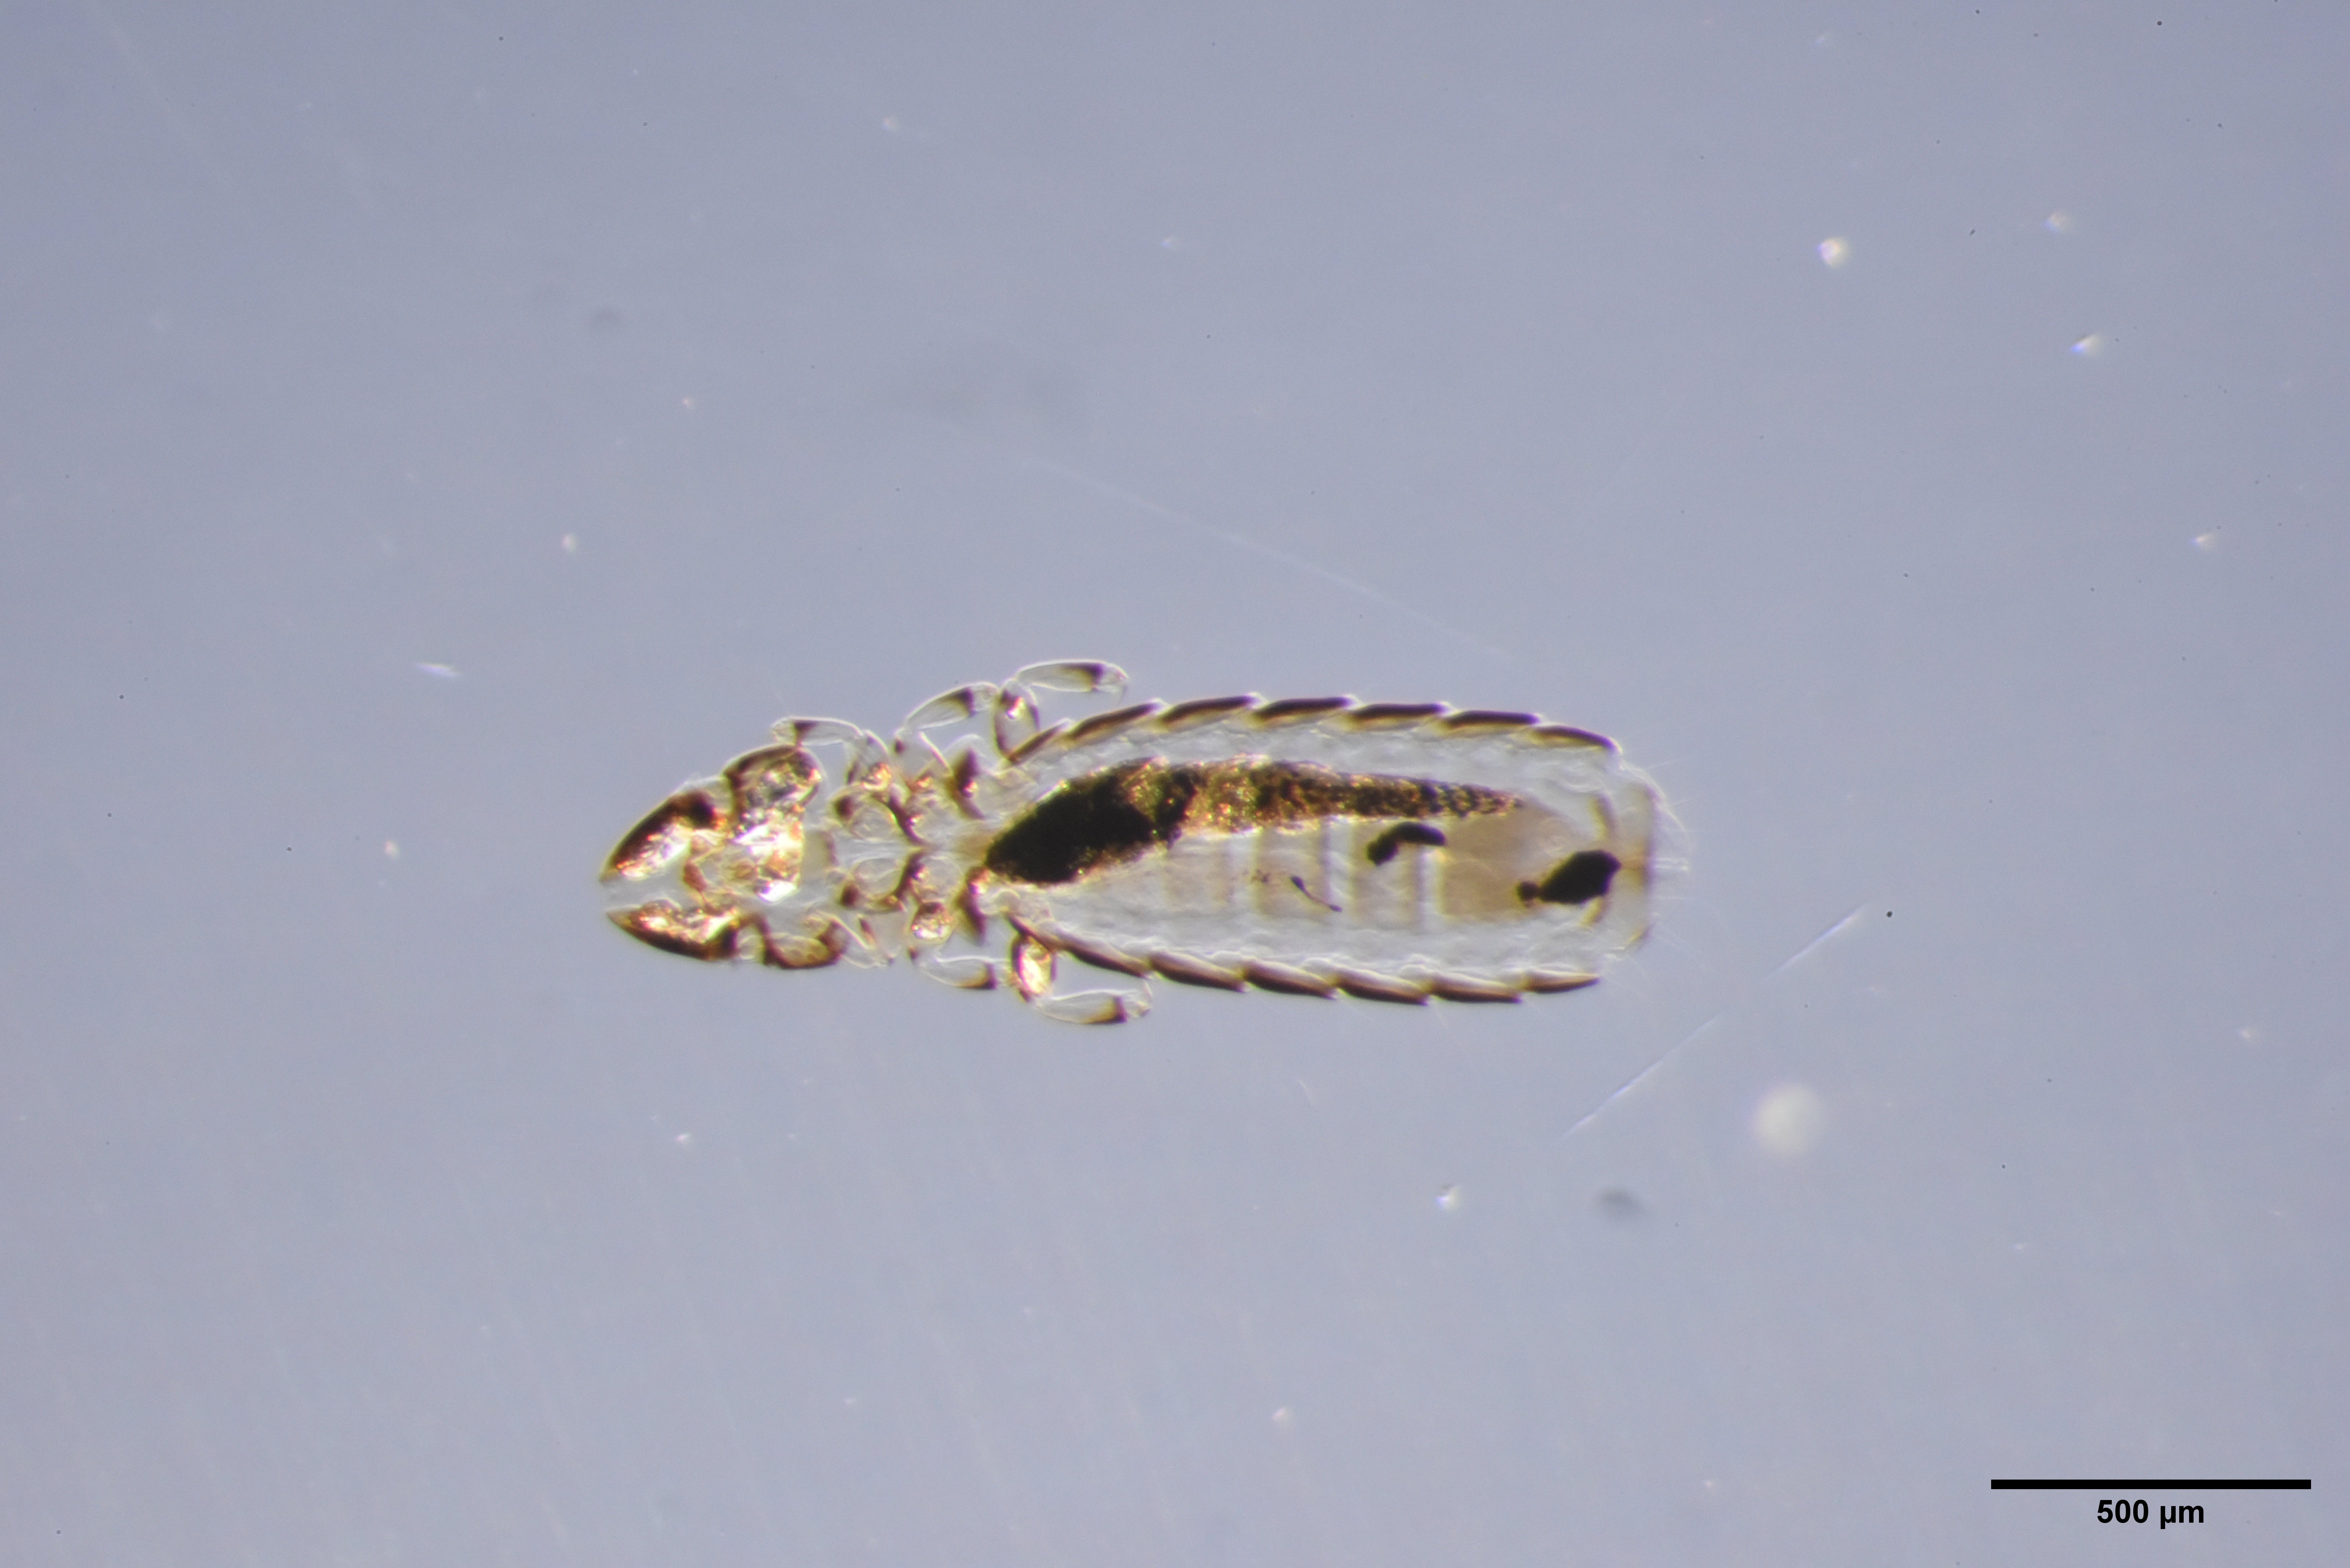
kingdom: Animalia
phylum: Arthropoda
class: Insecta
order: Psocodea
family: Philopteridae
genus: Brueelia
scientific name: Brueelia pyrrhularum
